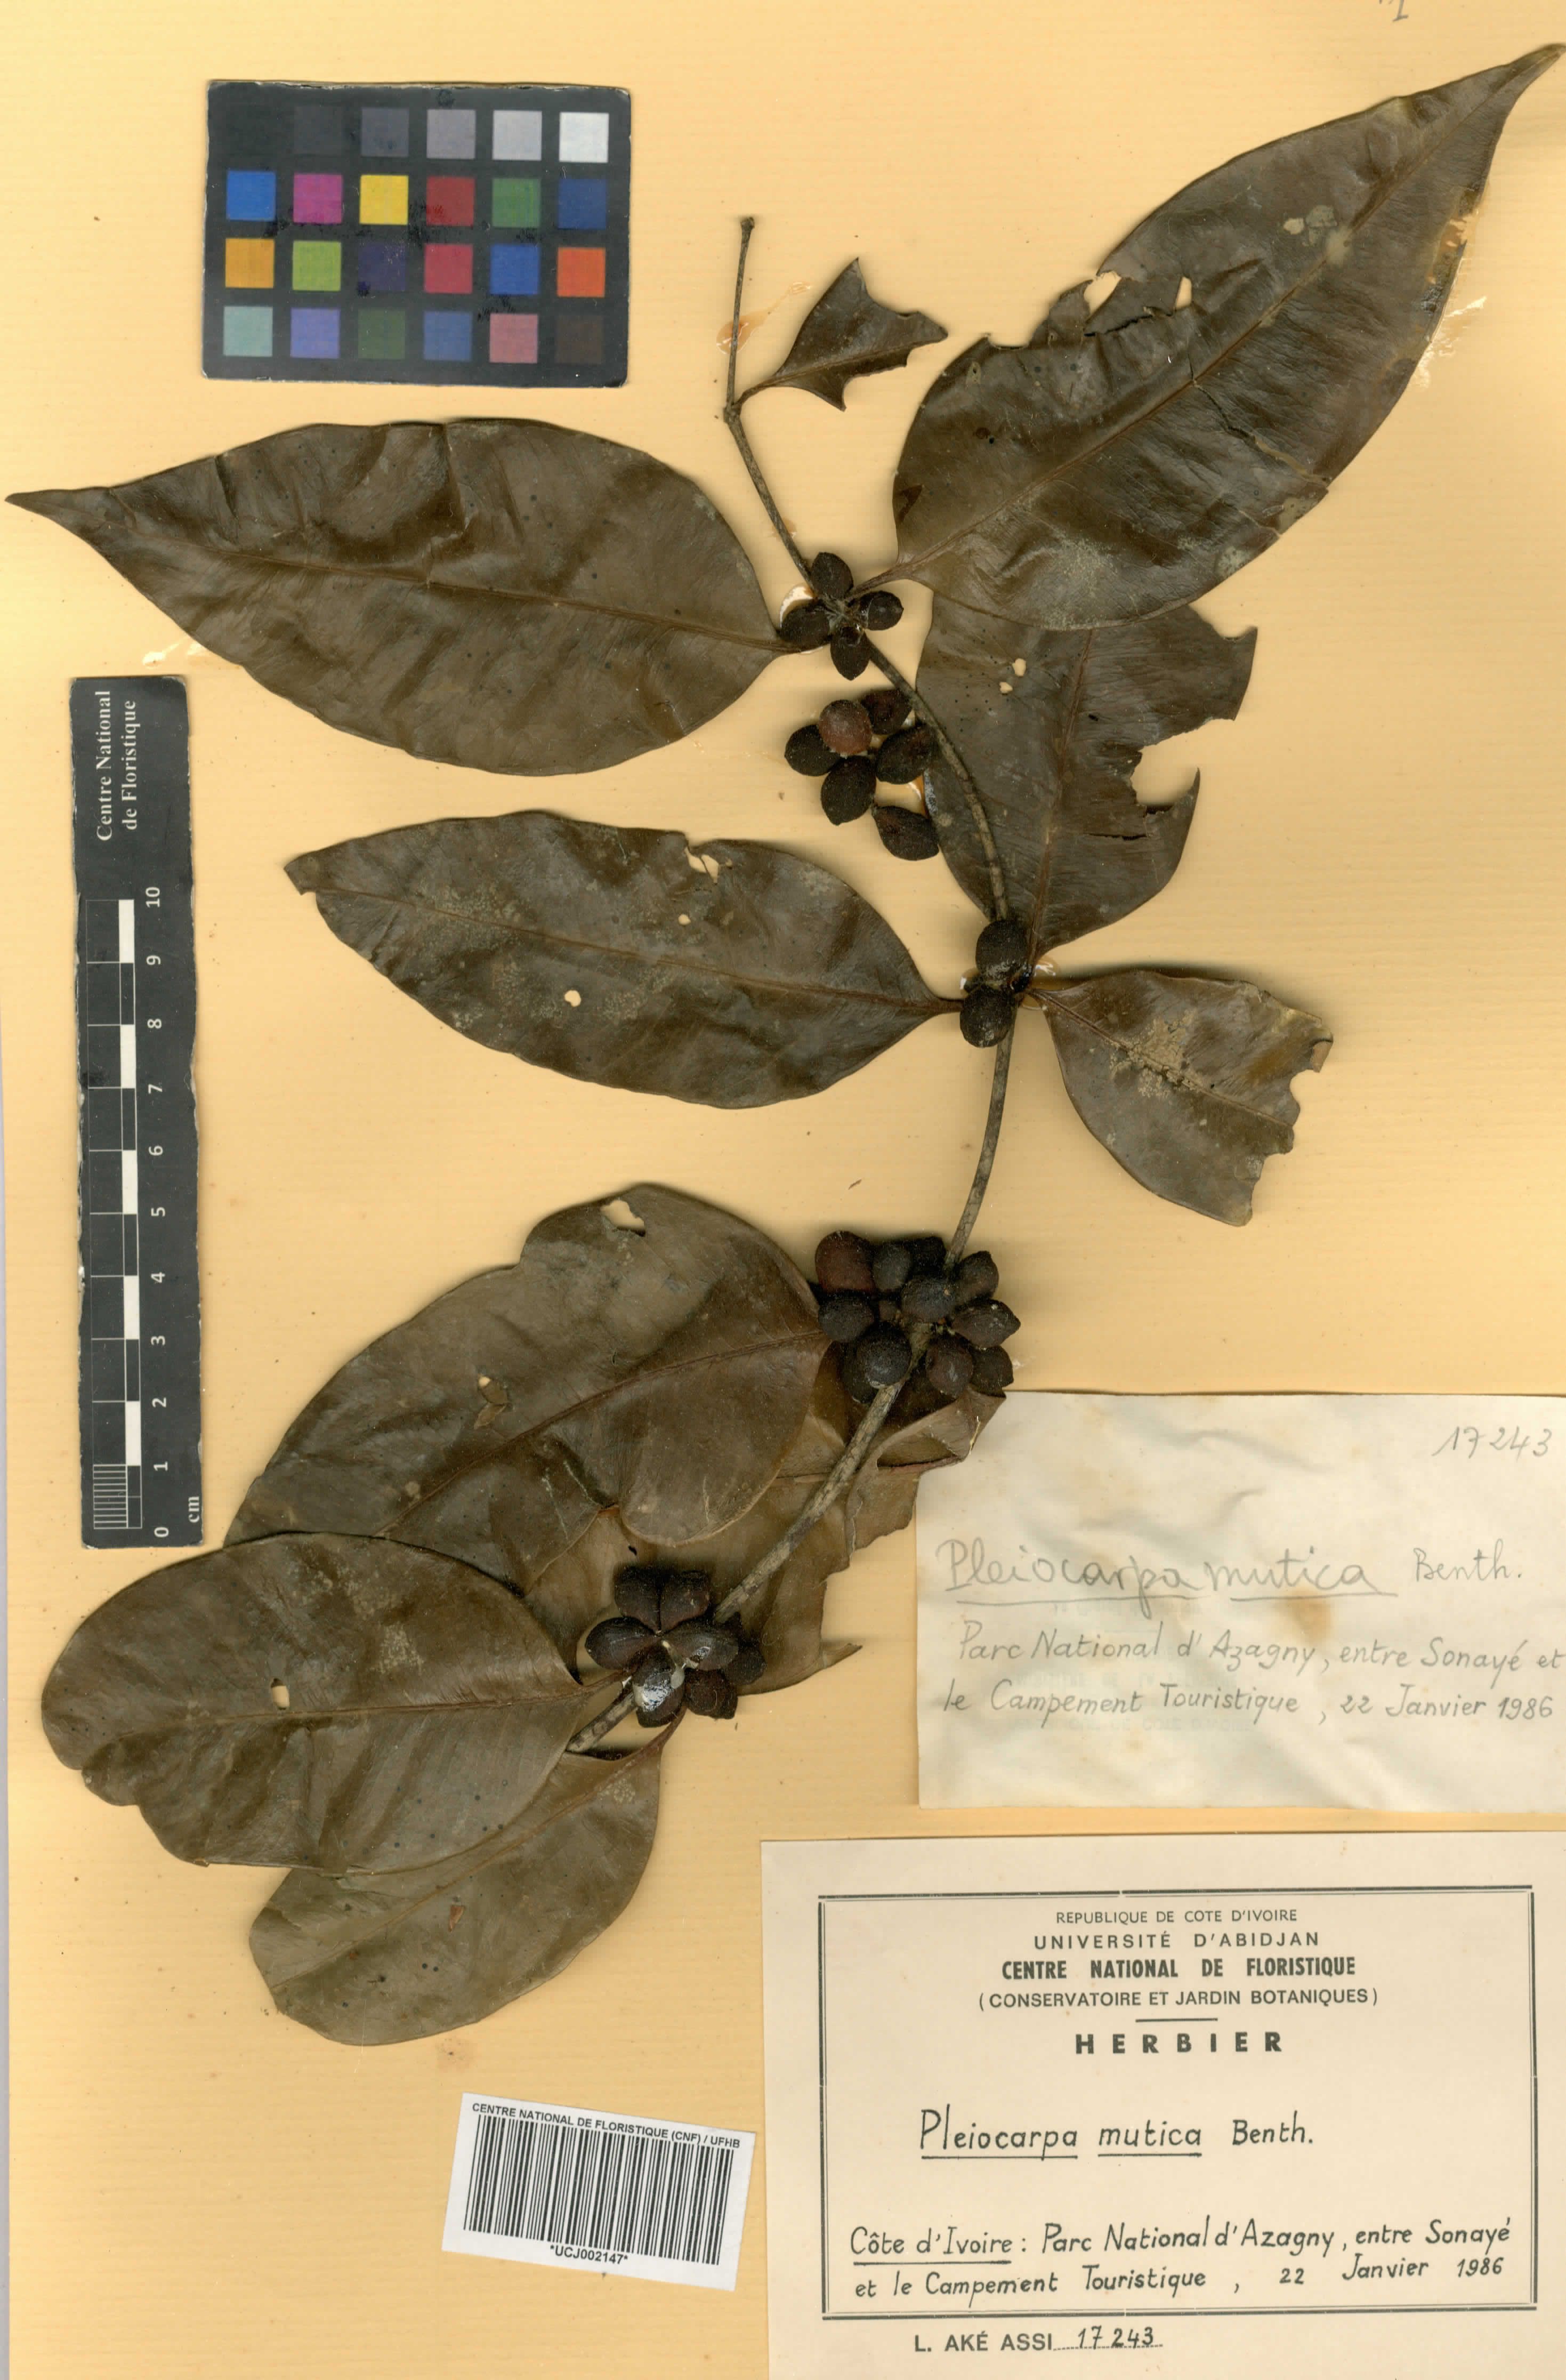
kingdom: Plantae
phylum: Tracheophyta
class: Magnoliopsida
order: Gentianales
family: Apocynaceae
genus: Pleiocarpa
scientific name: Pleiocarpa mutica
